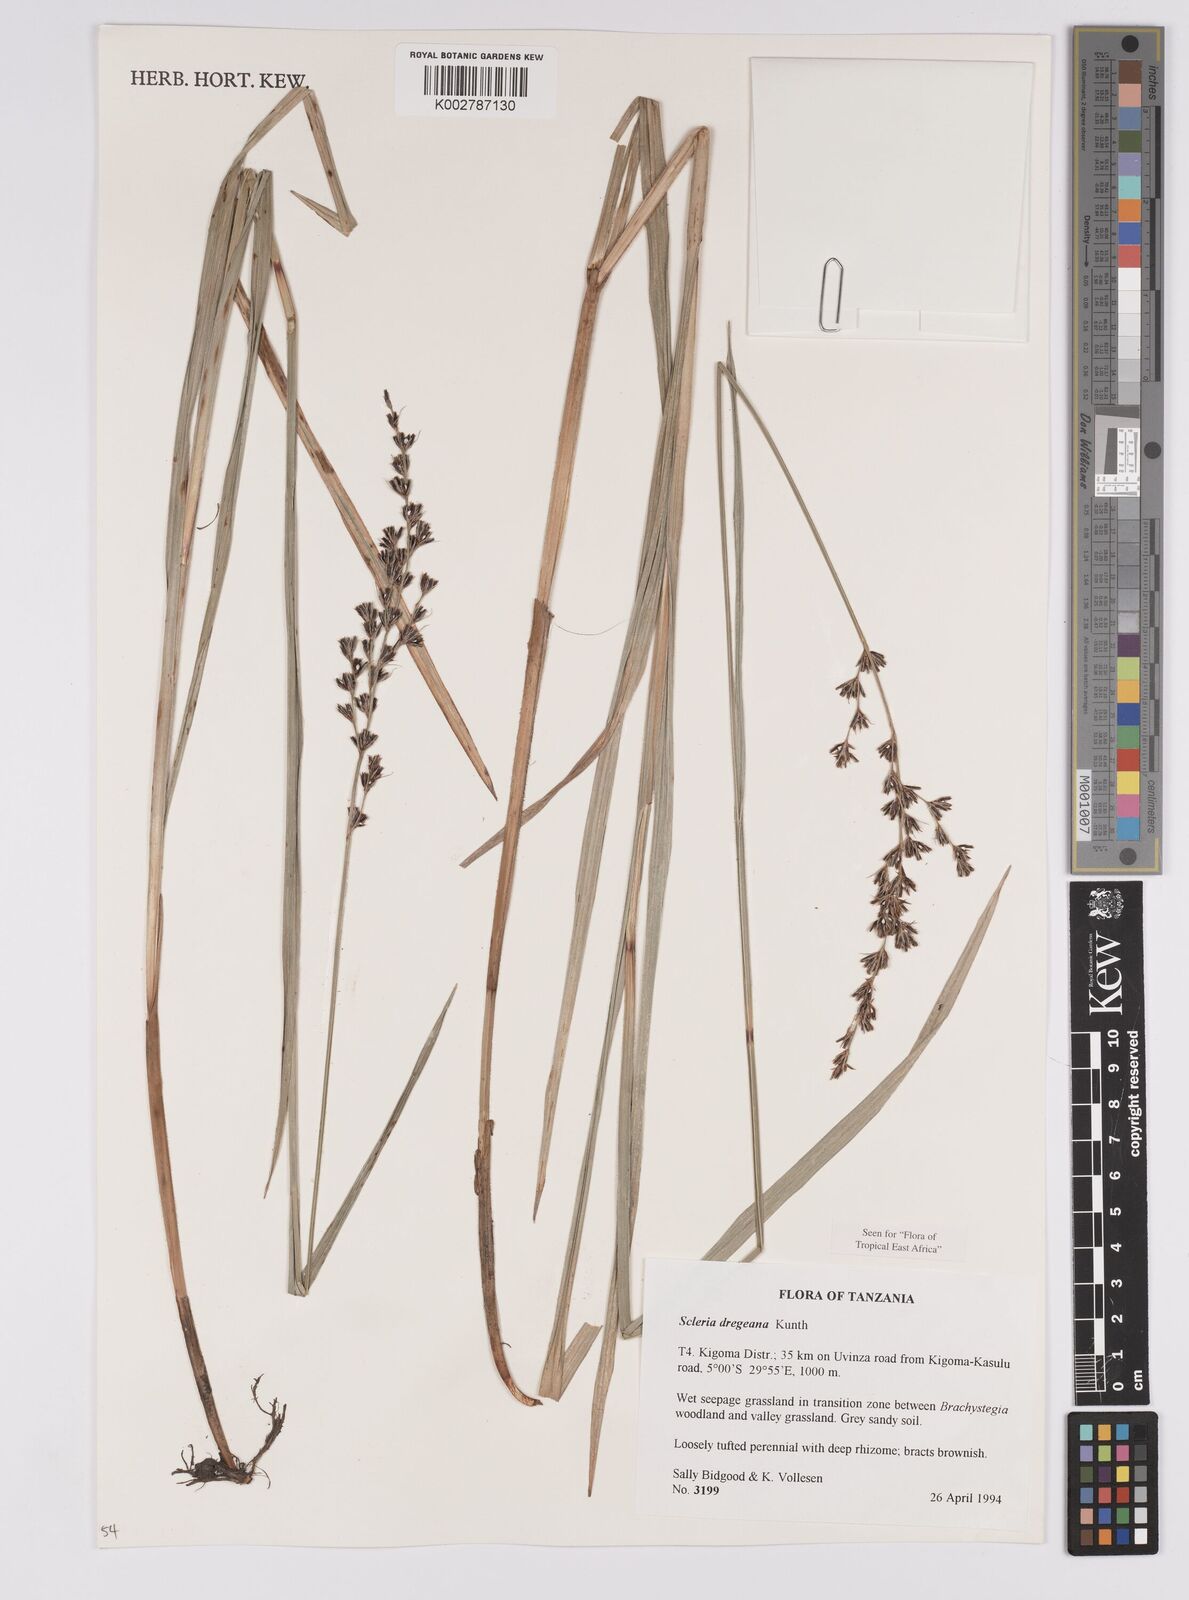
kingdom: Plantae
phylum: Tracheophyta
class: Liliopsida
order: Poales
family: Cyperaceae
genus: Scleria
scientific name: Scleria dregeana
